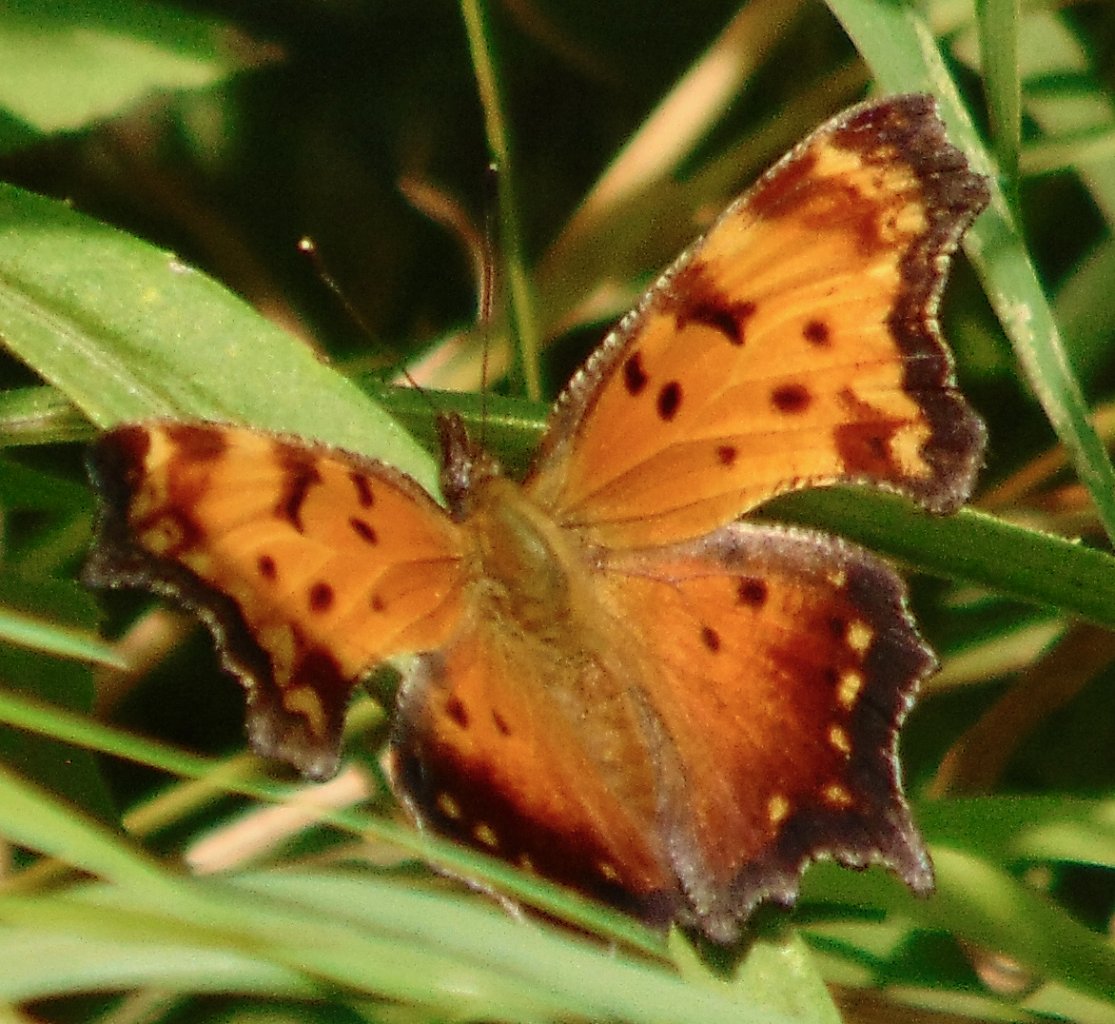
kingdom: Animalia
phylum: Arthropoda
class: Insecta
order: Lepidoptera
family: Nymphalidae
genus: Polygonia
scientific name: Polygonia progne
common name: Gray Comma
